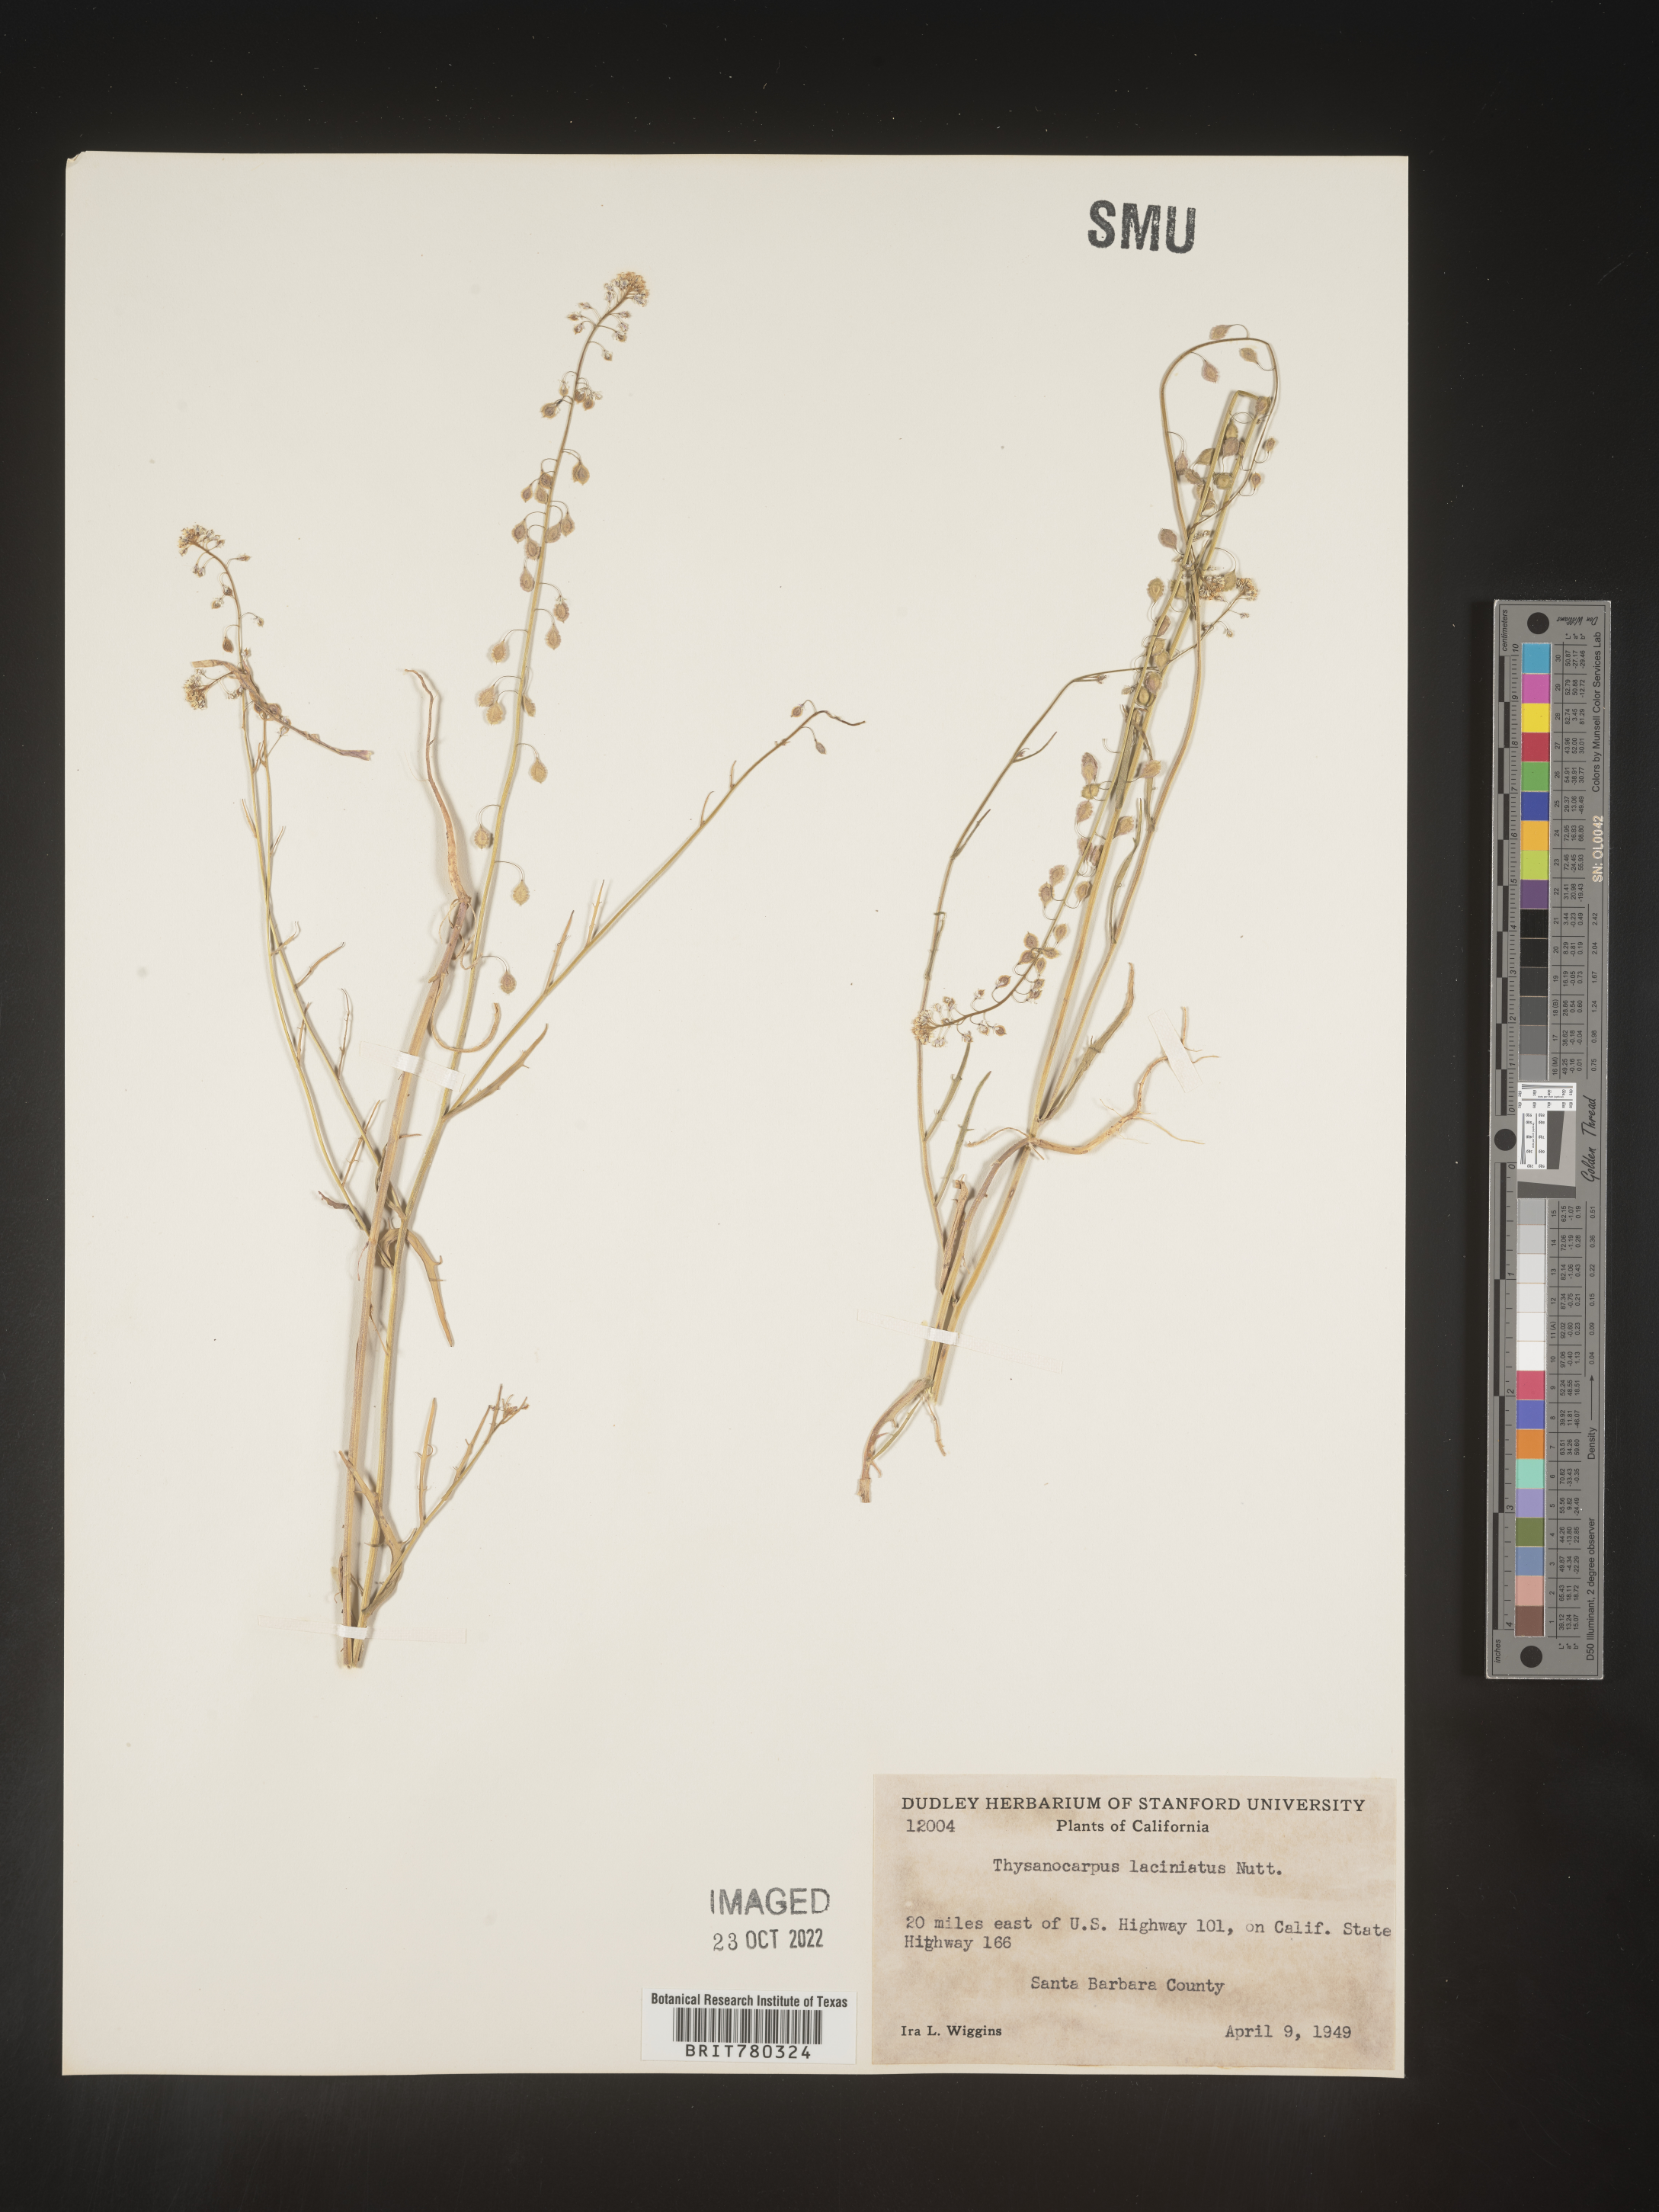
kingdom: Plantae
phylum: Tracheophyta
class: Magnoliopsida
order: Brassicales
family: Brassicaceae
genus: Thysanocarpus
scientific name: Thysanocarpus
